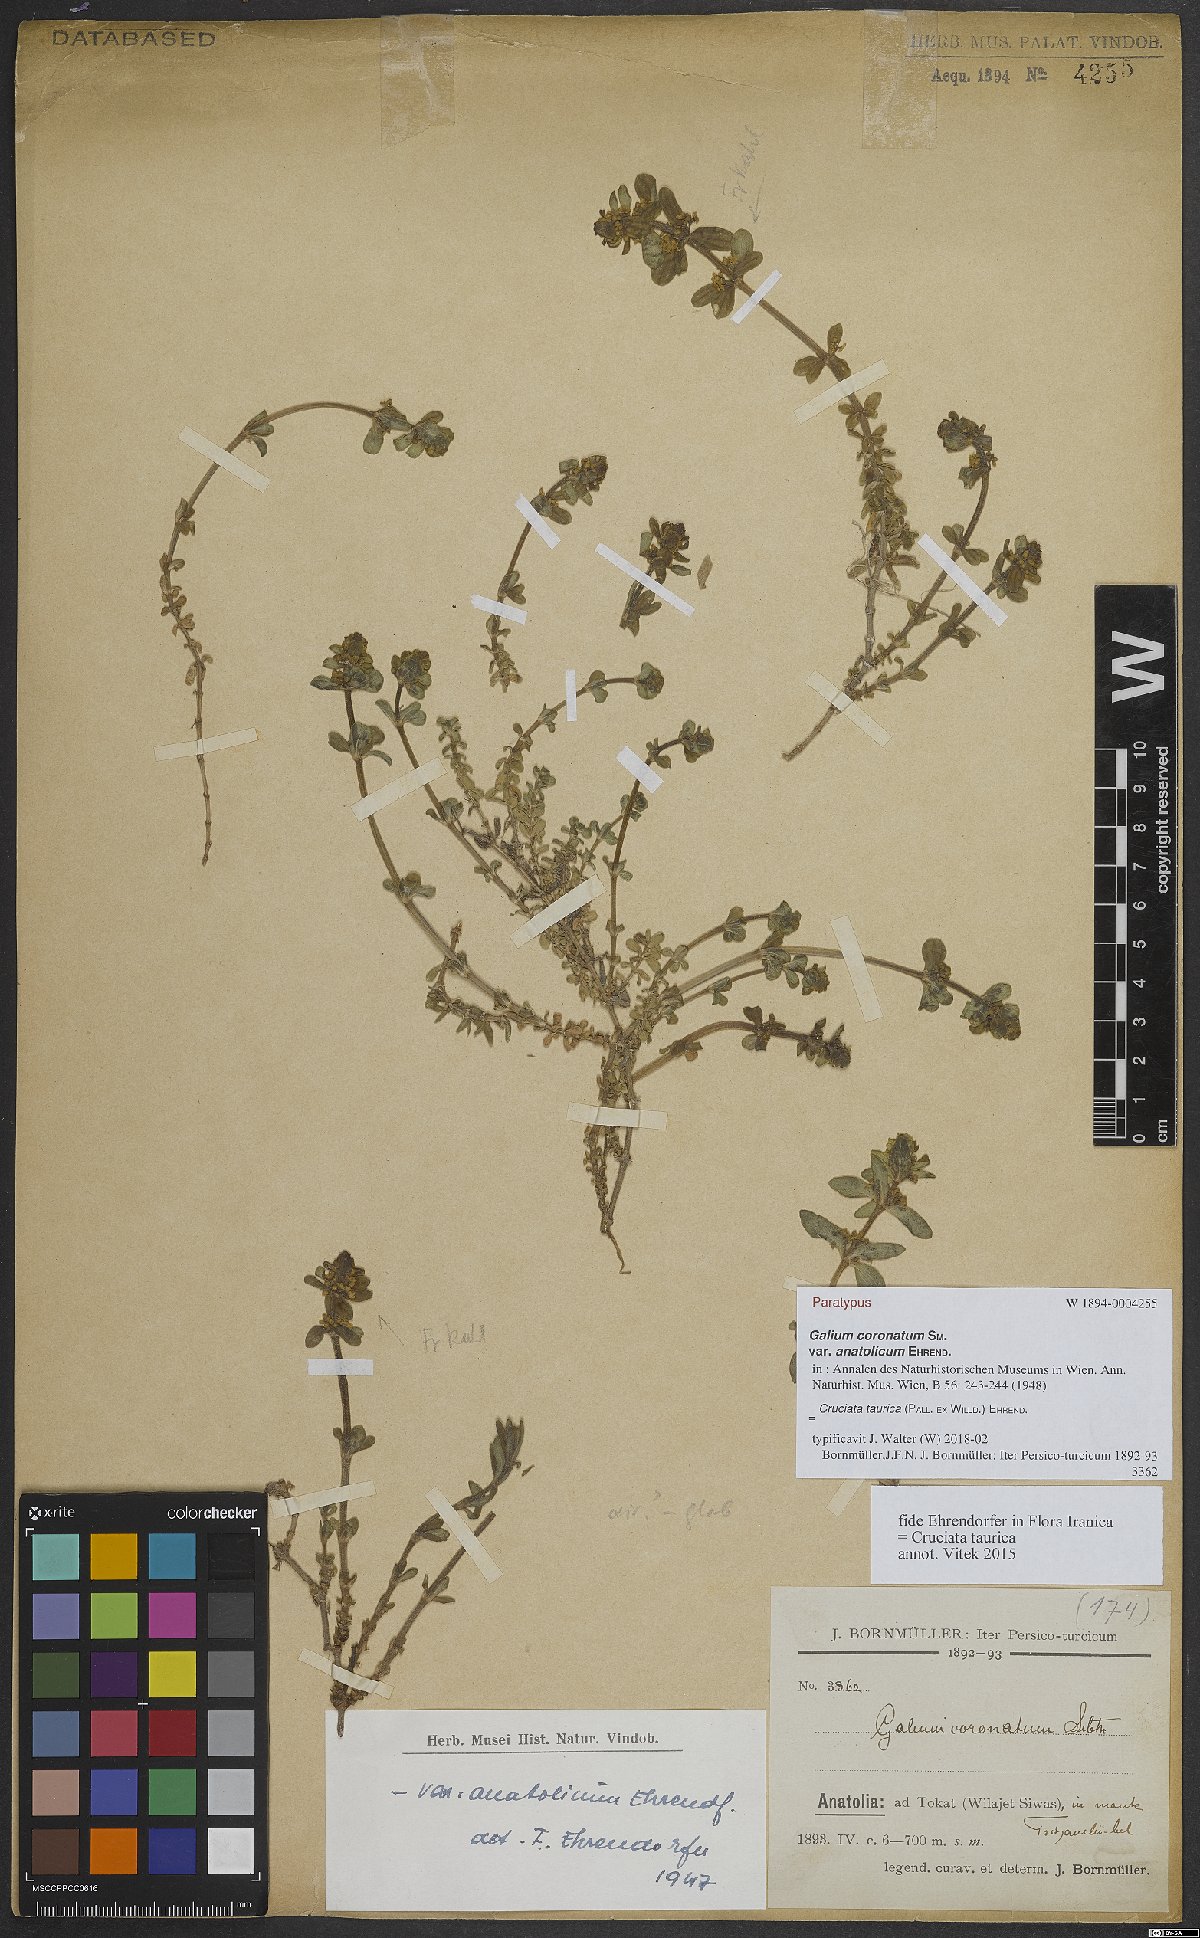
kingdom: Plantae
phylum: Tracheophyta
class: Magnoliopsida
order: Gentianales
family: Rubiaceae
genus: Cruciata
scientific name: Cruciata taurica
